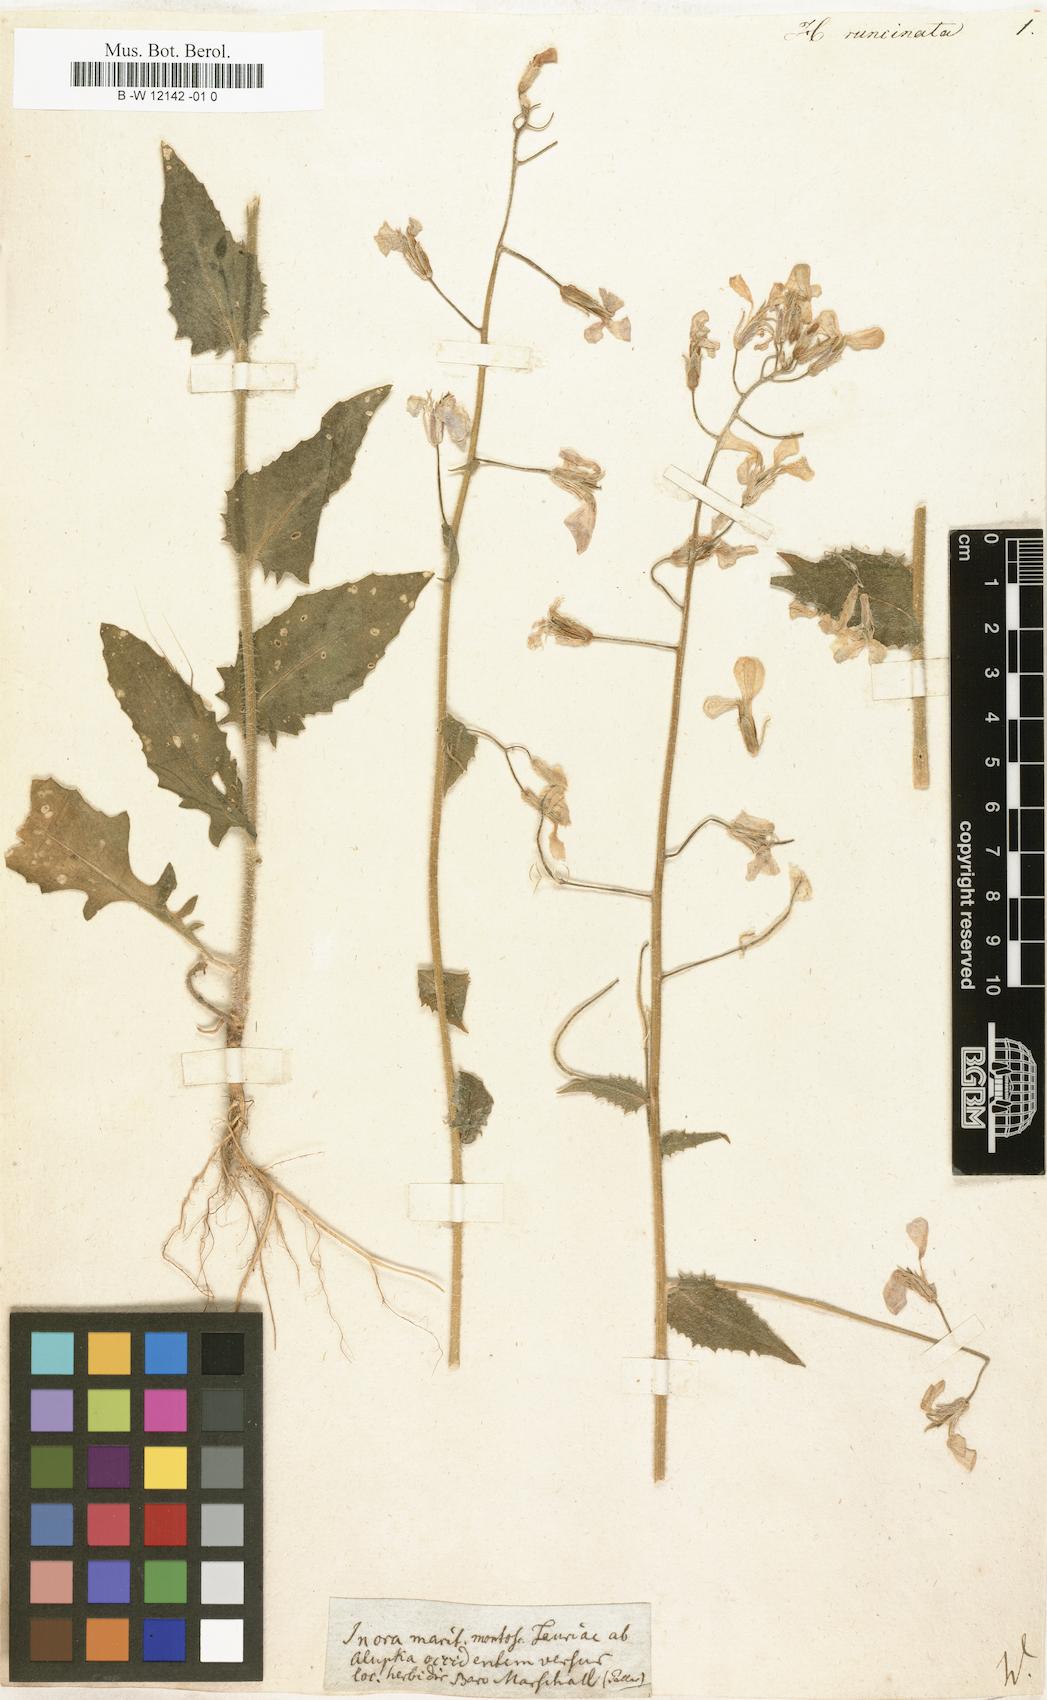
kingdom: Plantae
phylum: Tracheophyta
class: Magnoliopsida
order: Brassicales
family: Brassicaceae
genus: Hesperis
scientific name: Hesperis sylvestris
